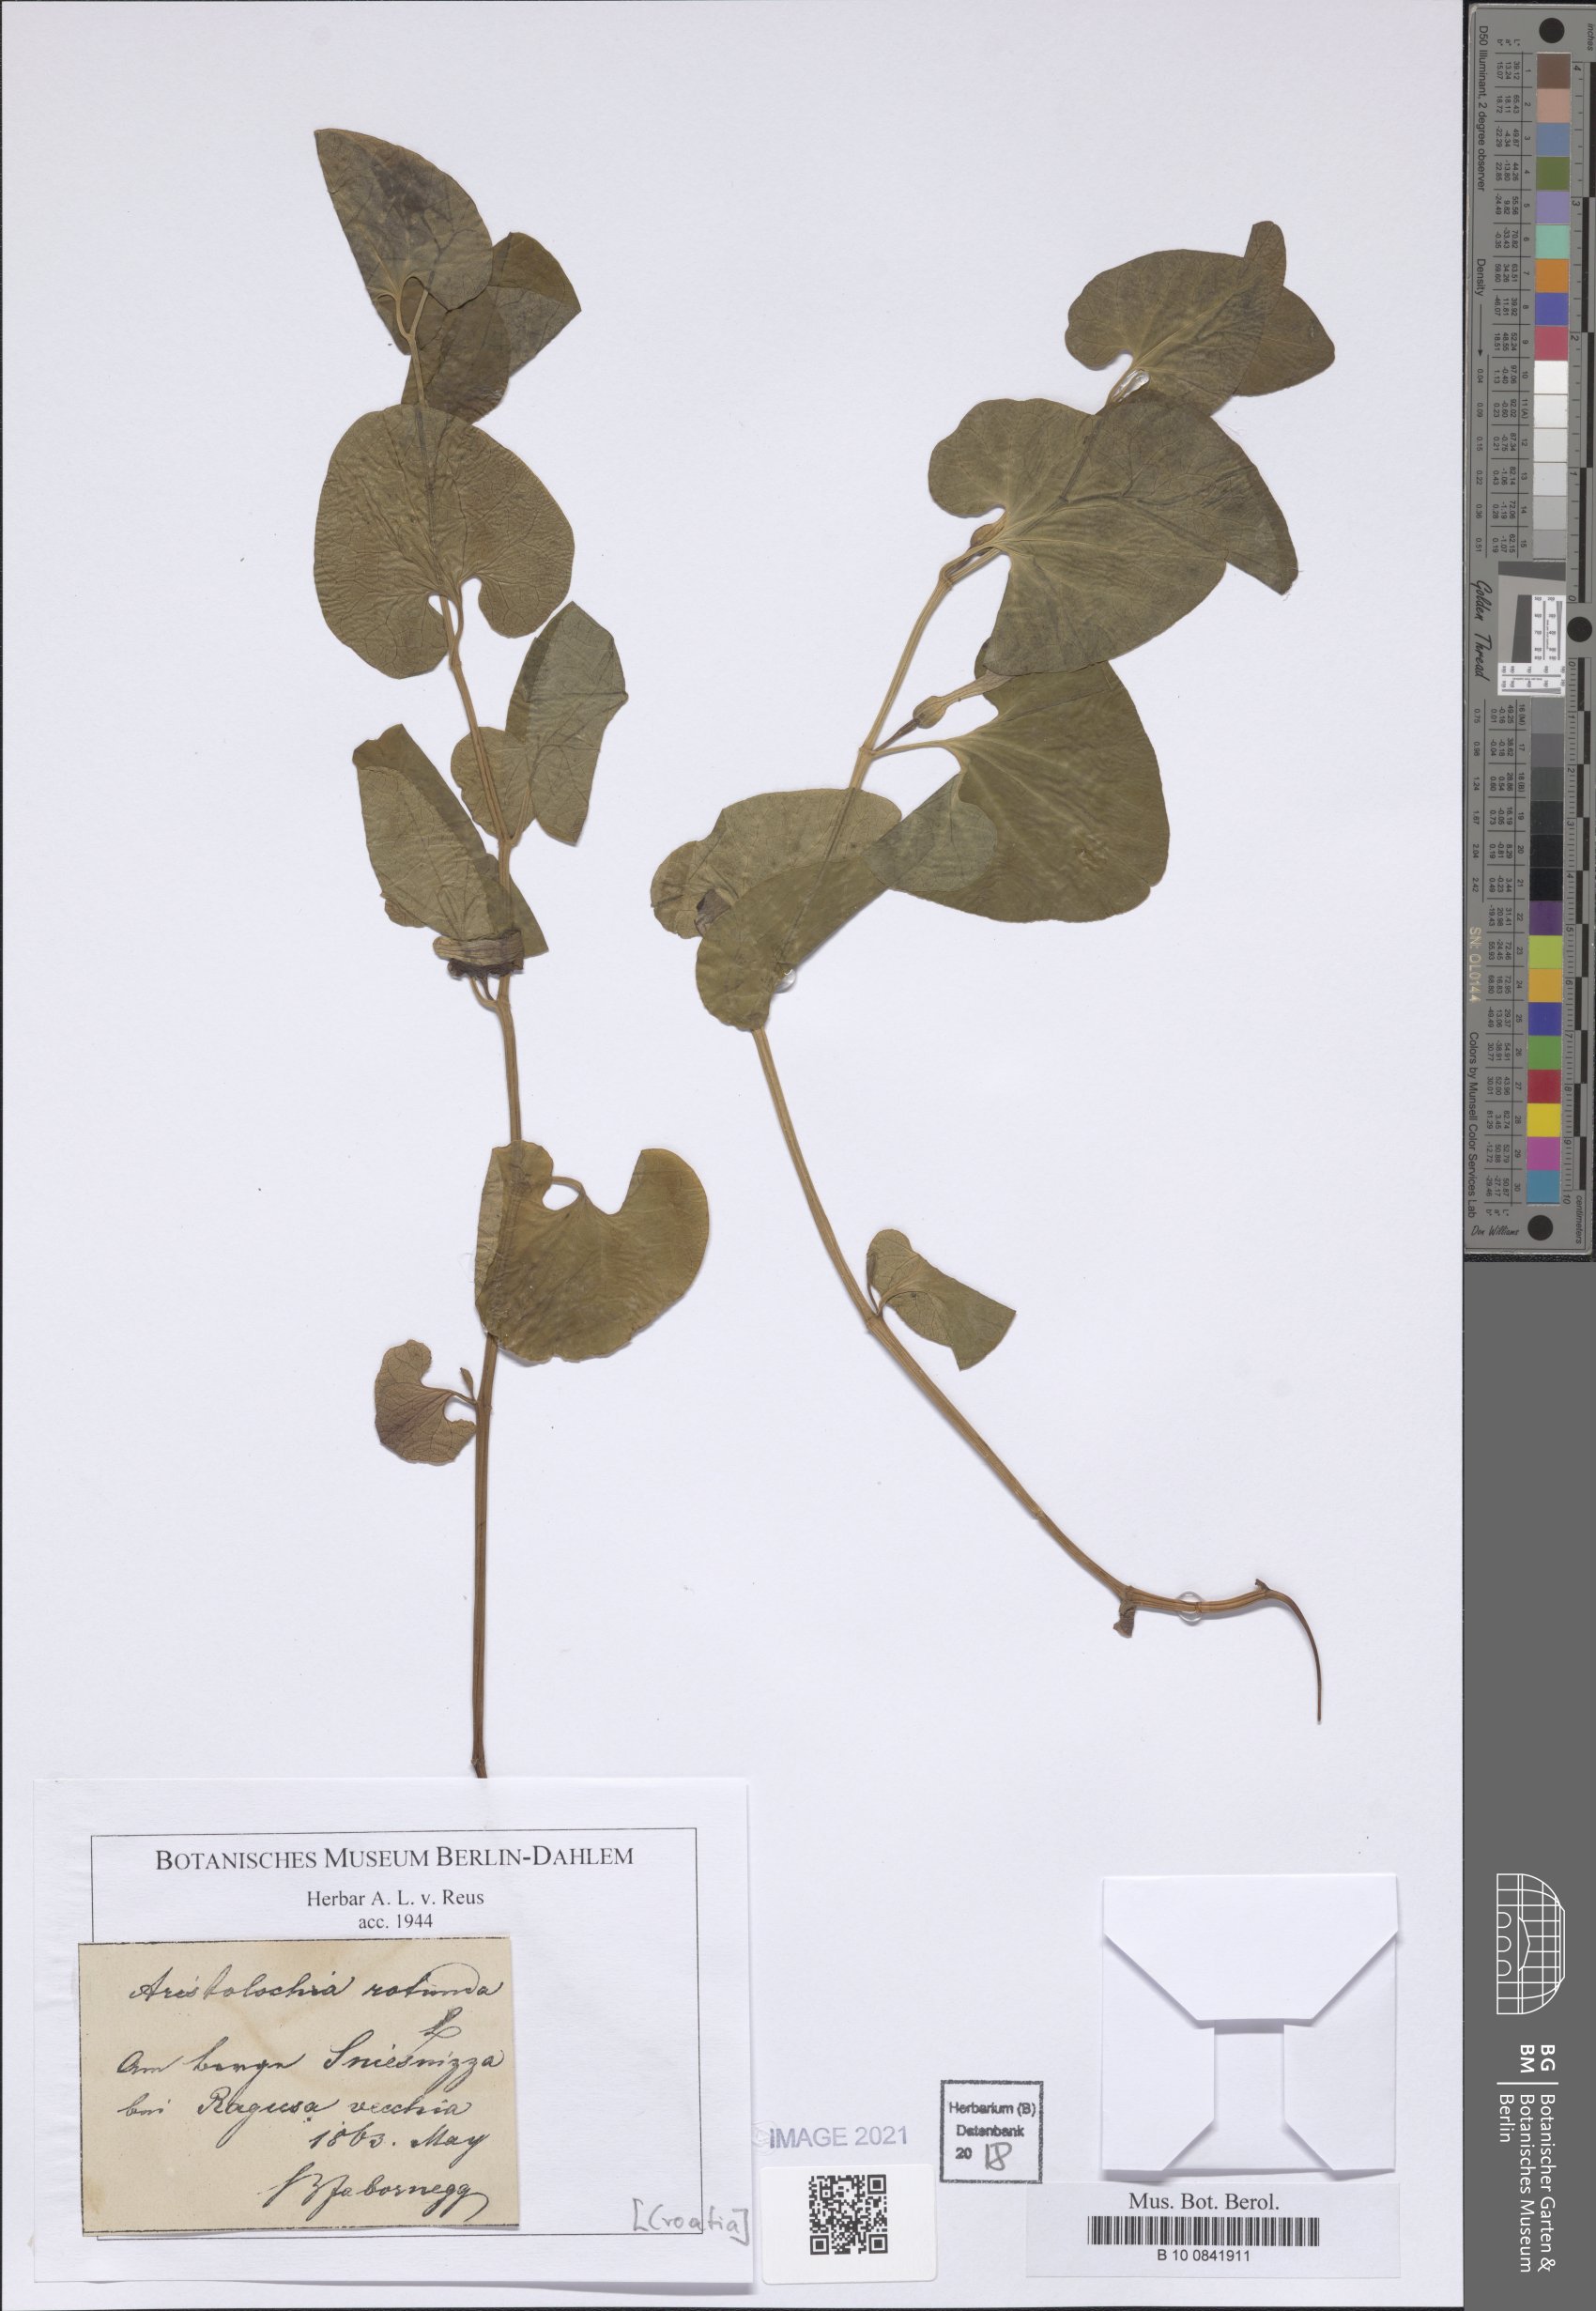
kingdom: Plantae
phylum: Tracheophyta
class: Magnoliopsida
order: Piperales
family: Aristolochiaceae
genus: Aristolochia
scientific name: Aristolochia rotunda
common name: Smearwort
